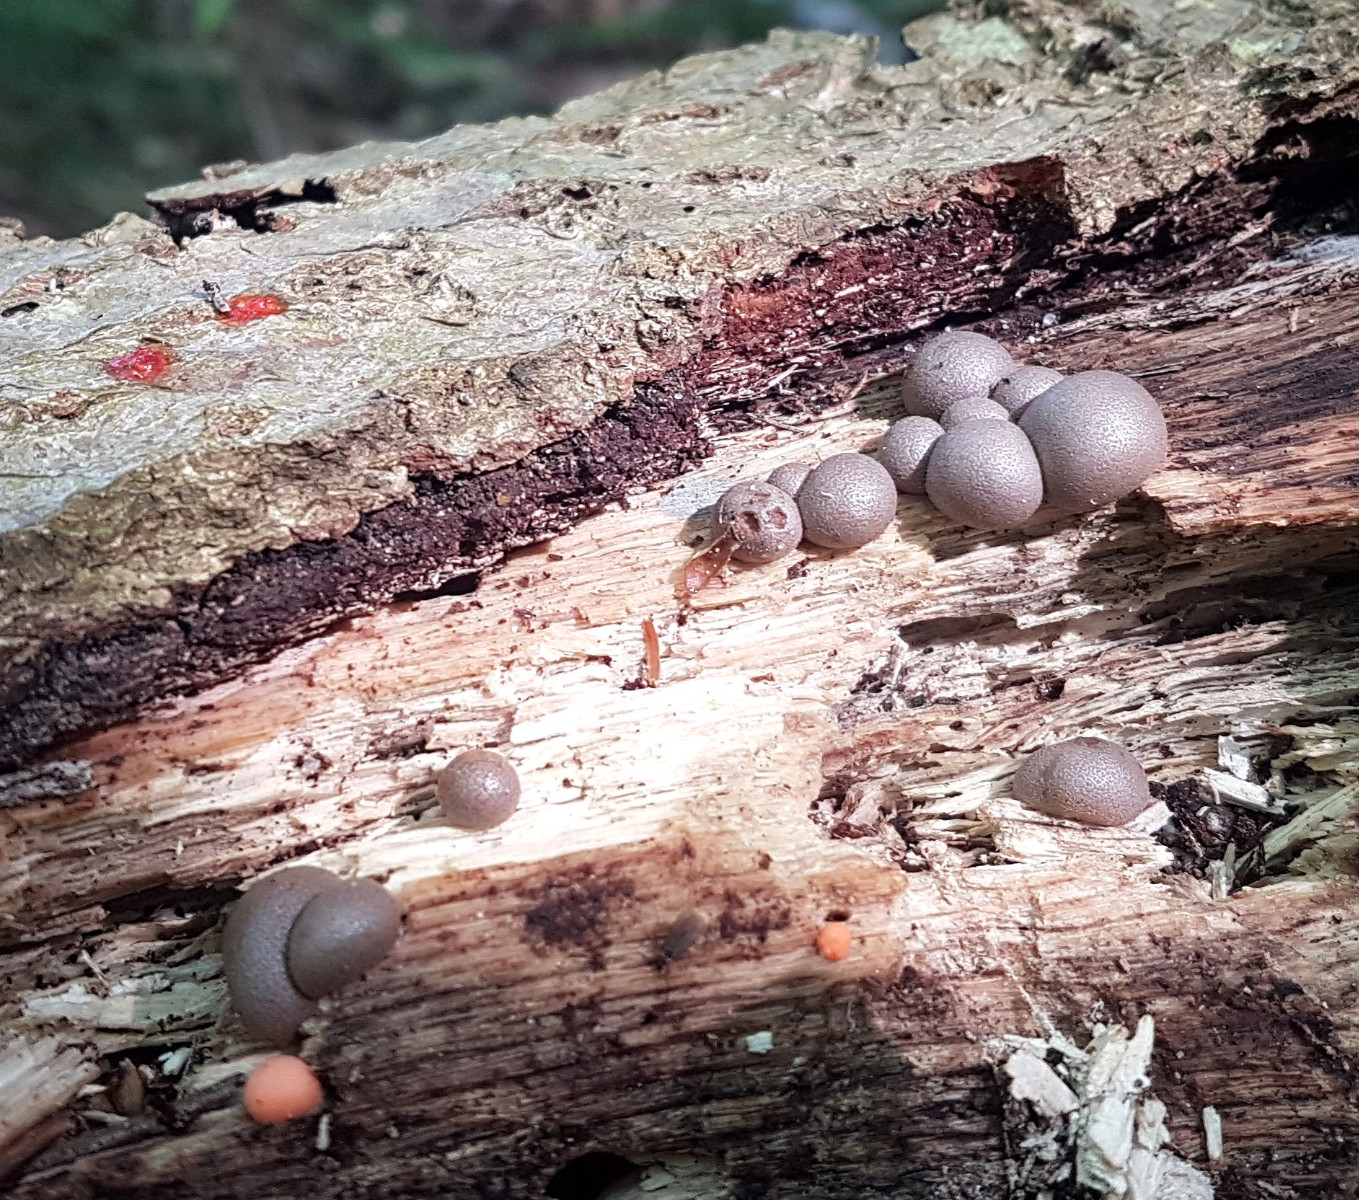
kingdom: Protozoa
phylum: Mycetozoa
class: Myxomycetes
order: Cribrariales
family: Tubiferaceae
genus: Lycogala
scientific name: Lycogala epidendrum
